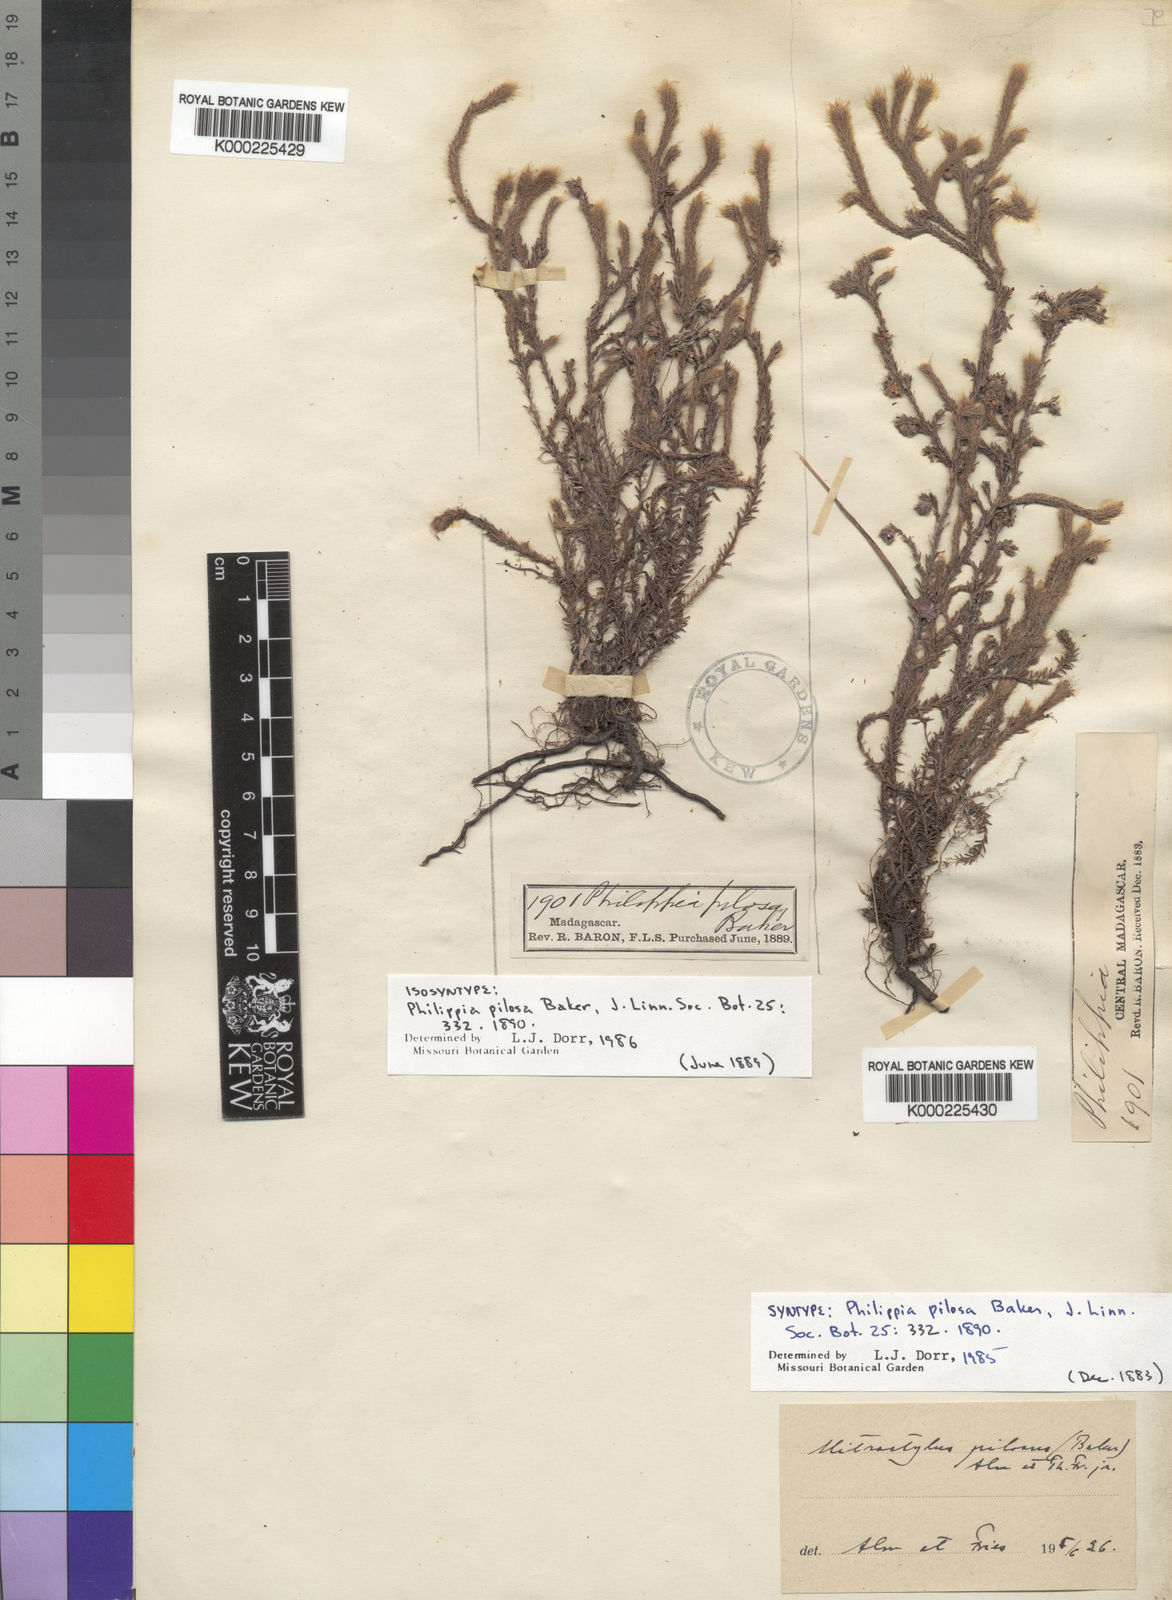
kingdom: Plantae
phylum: Tracheophyta
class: Magnoliopsida
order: Ericales
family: Ericaceae
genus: Erica
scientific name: Erica madagascariensis
